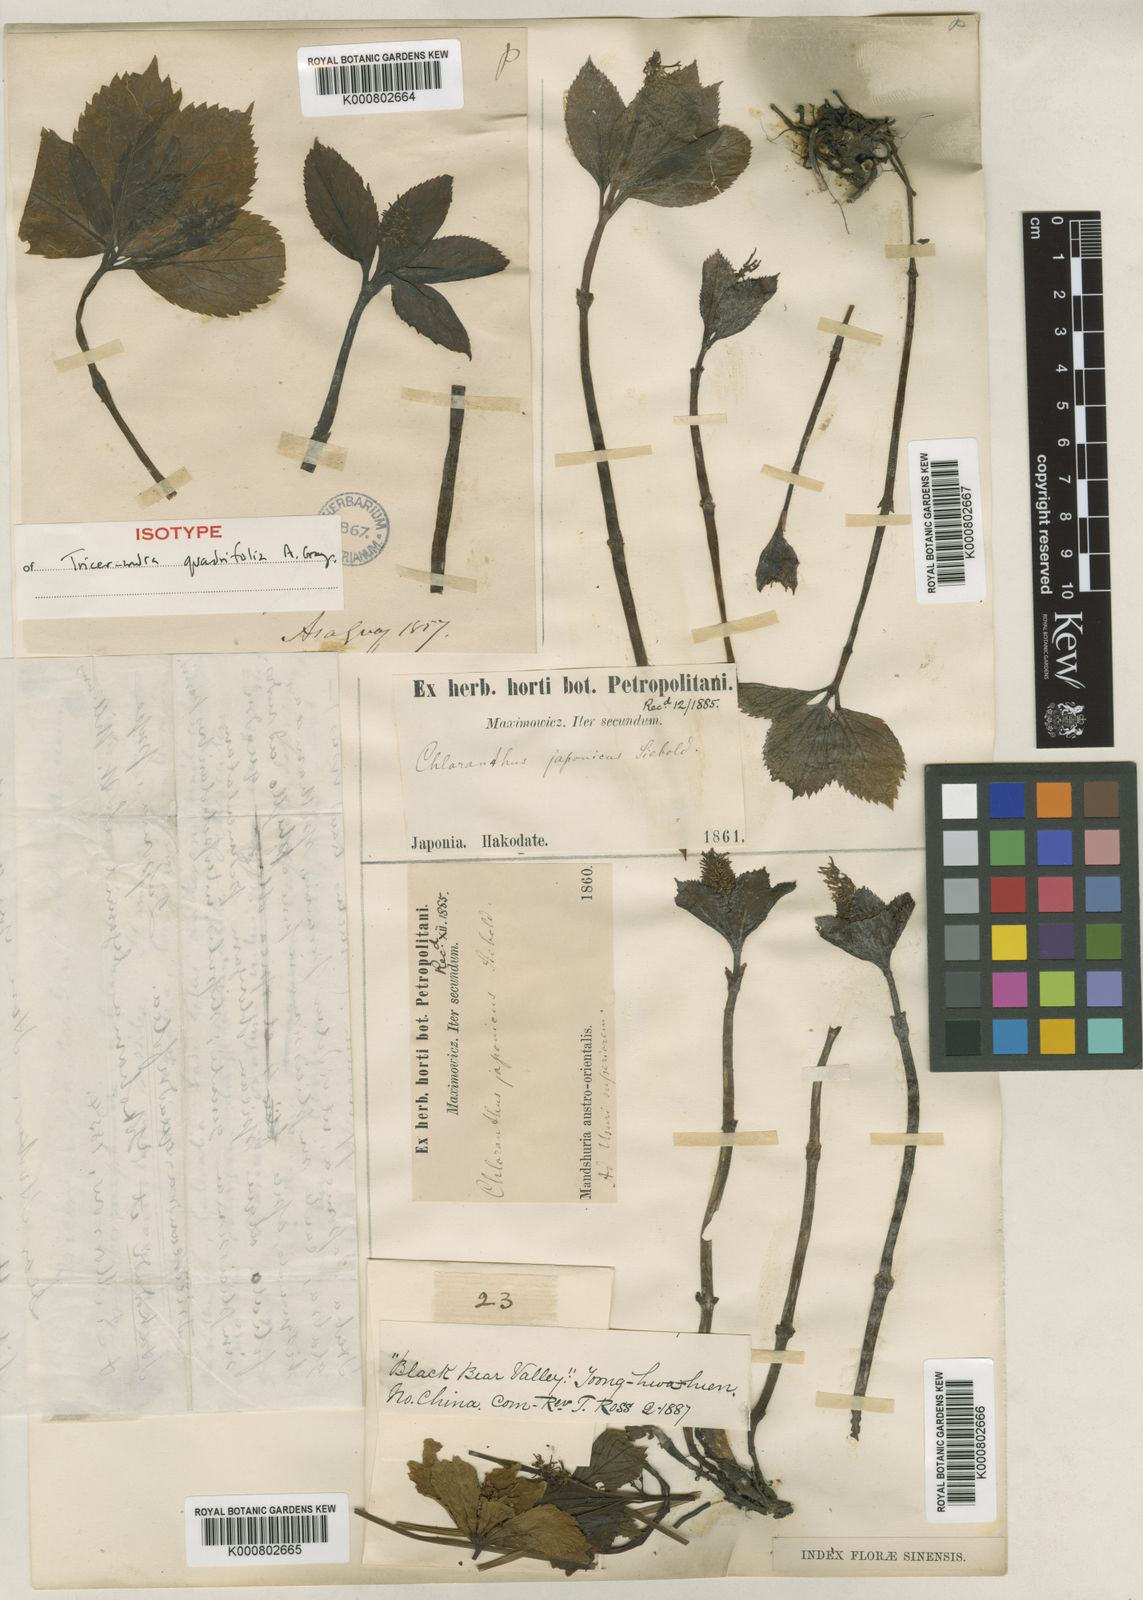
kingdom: Plantae
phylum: Tracheophyta
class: Magnoliopsida
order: Chloranthales
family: Chloranthaceae
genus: Chloranthus
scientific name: Chloranthus japonicus
